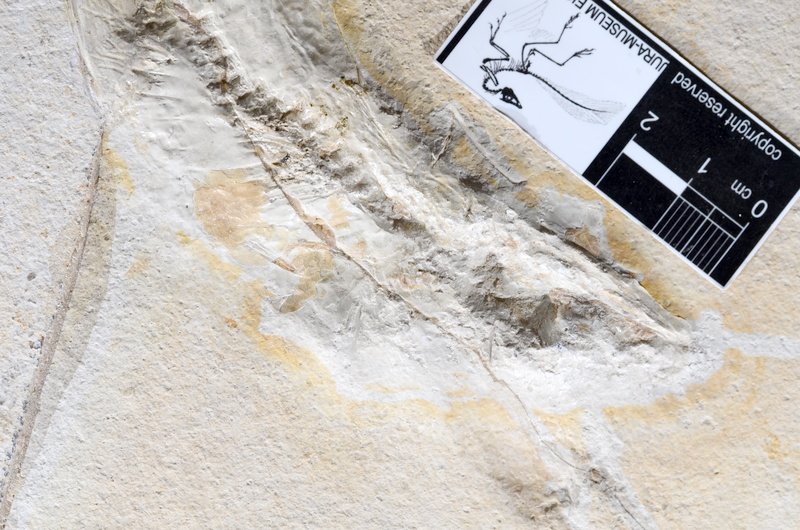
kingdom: Animalia
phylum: Chordata
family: Allothrissopidae
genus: Allothrissops
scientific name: Allothrissops
